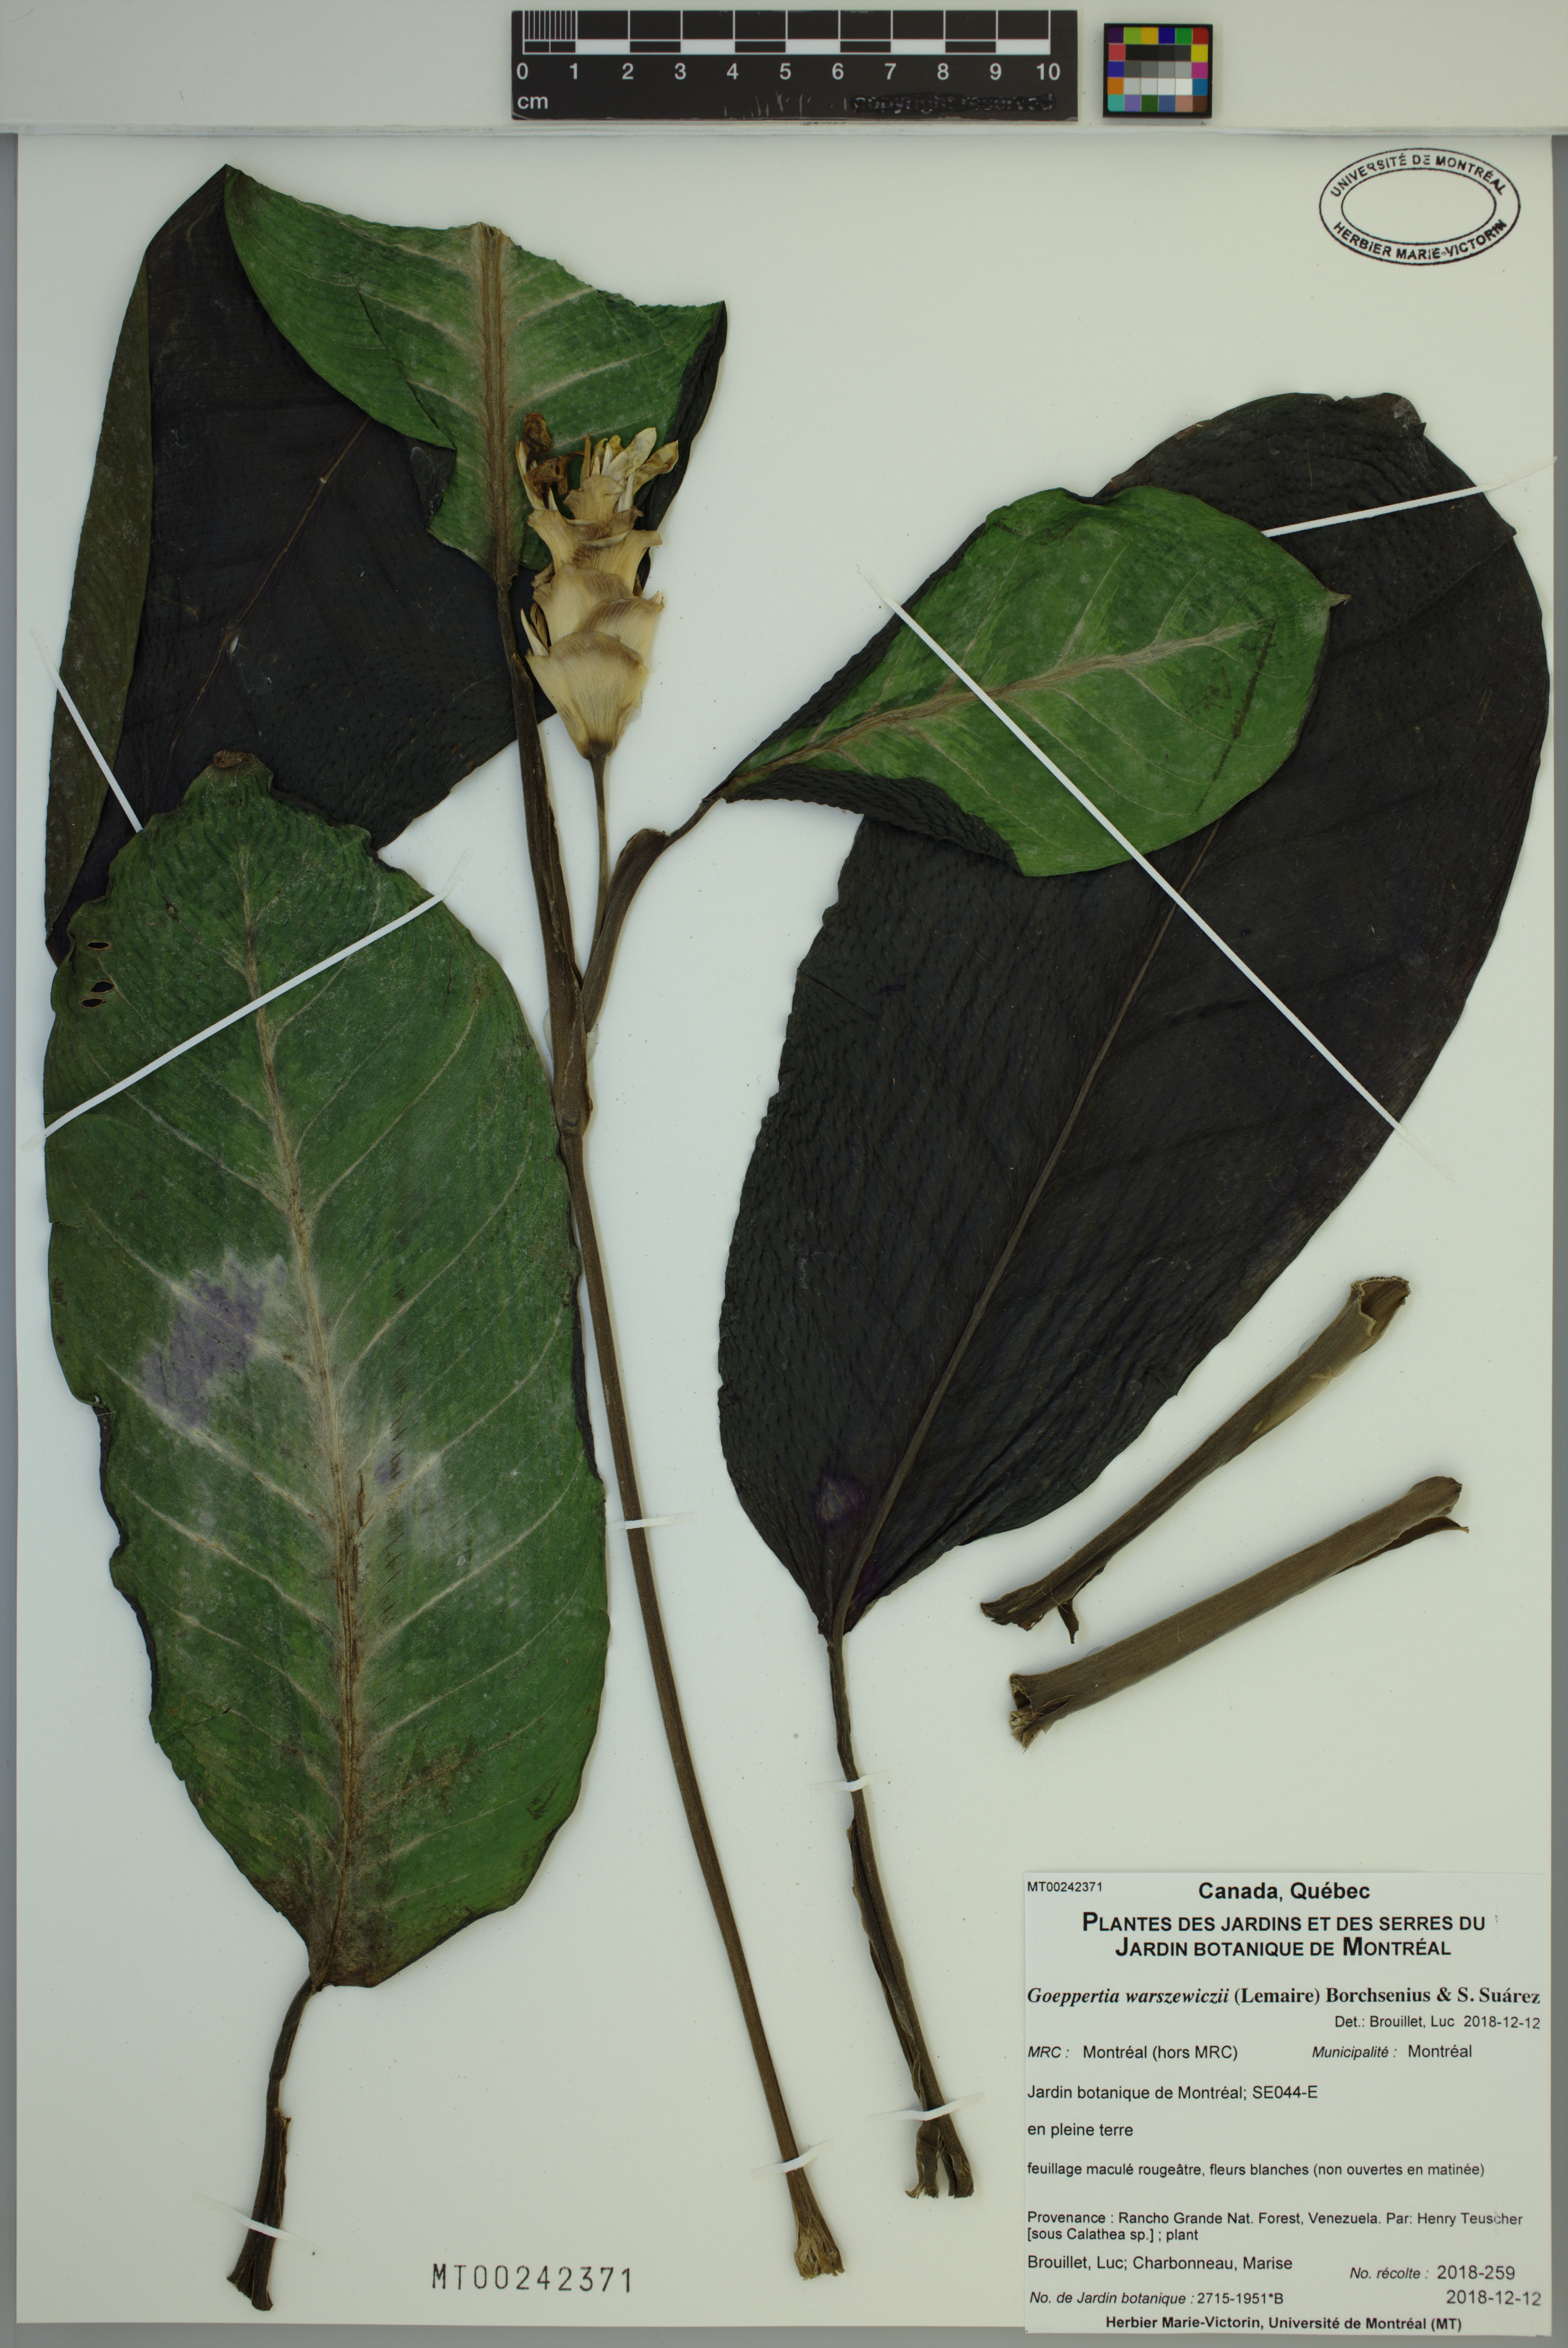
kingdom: Plantae
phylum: Tracheophyta
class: Liliopsida
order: Zingiberales
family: Marantaceae
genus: Goeppertia
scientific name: Goeppertia warszewiczii
